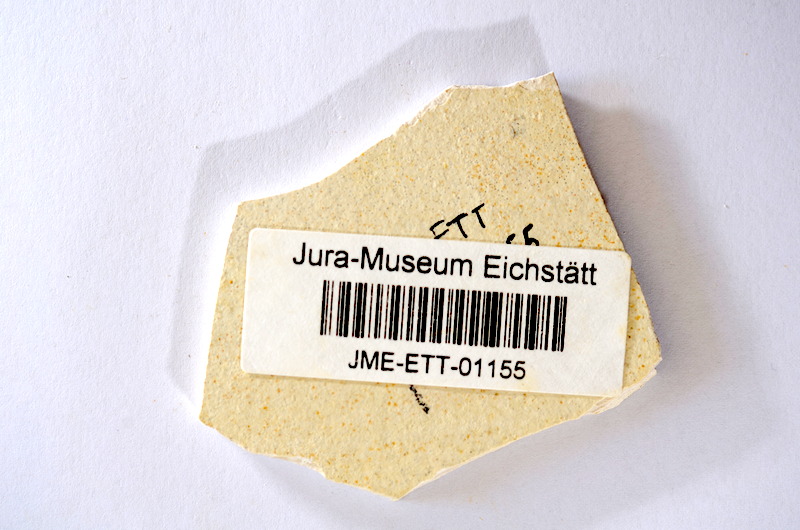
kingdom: Animalia
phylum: Chordata
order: Salmoniformes
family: Orthogonikleithridae
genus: Orthogonikleithrus
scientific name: Orthogonikleithrus hoelli
